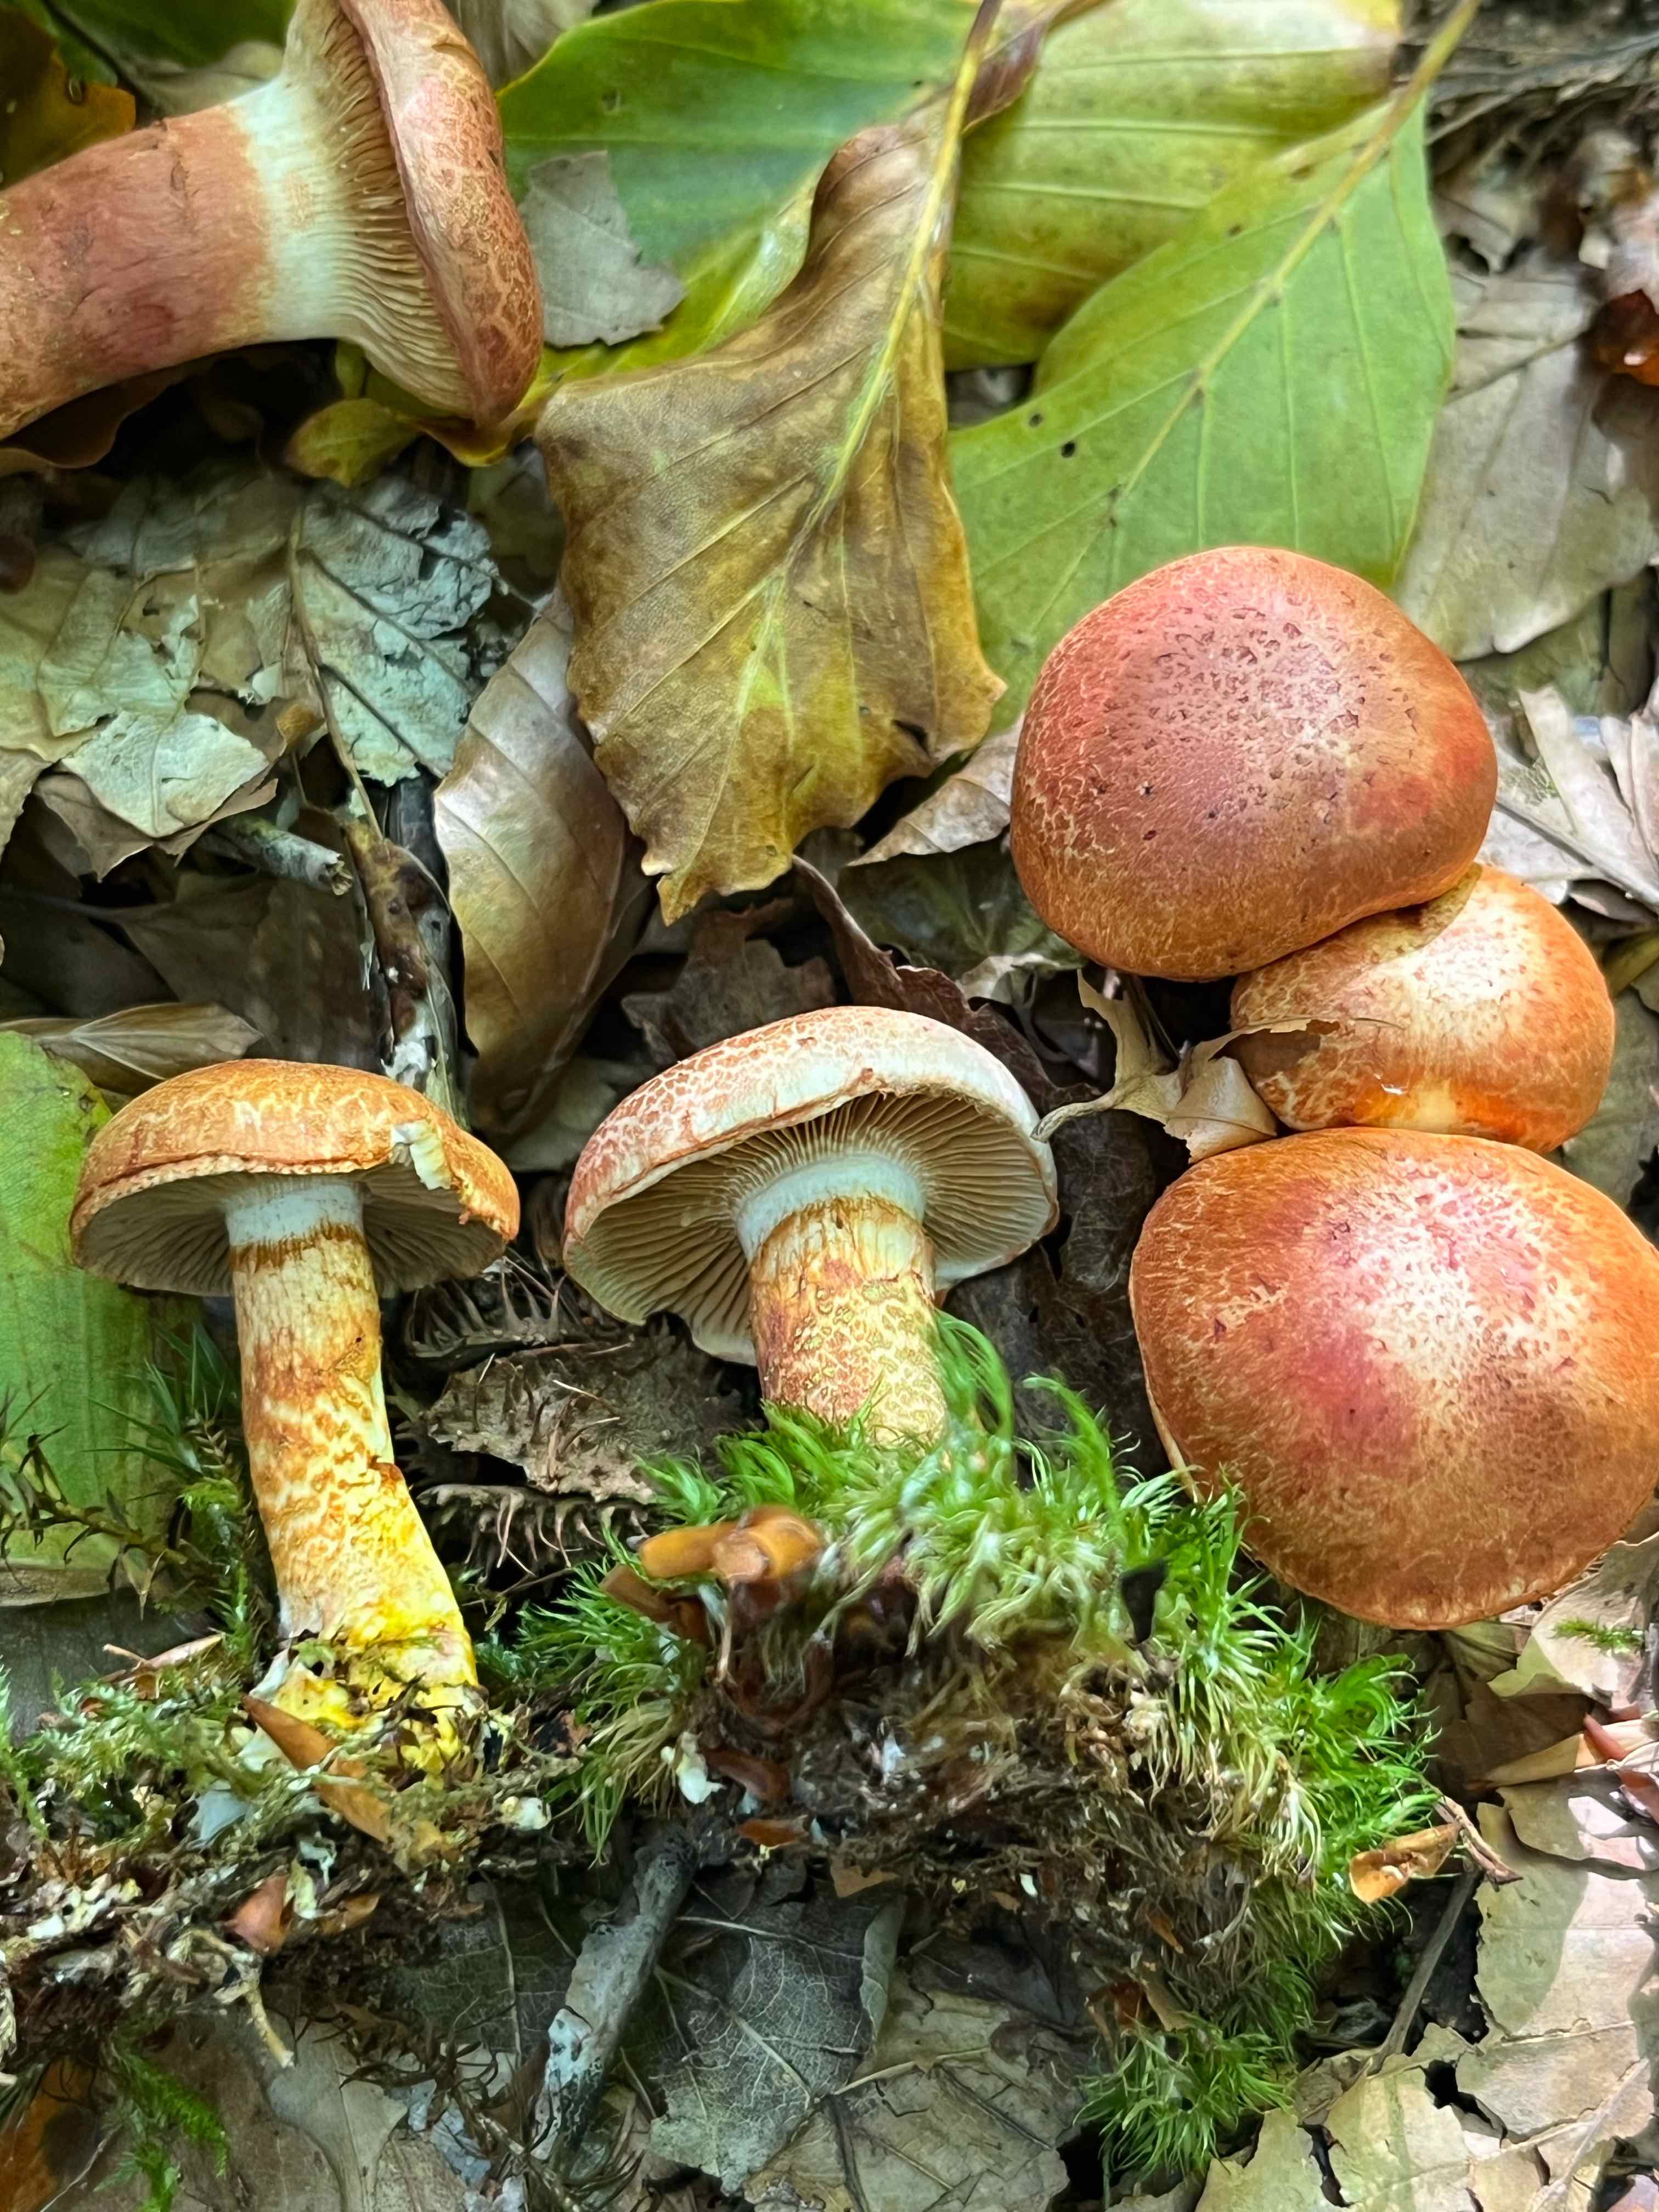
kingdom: Fungi
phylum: Basidiomycota
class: Agaricomycetes
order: Agaricales
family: Cortinariaceae
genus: Cortinarius
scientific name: Cortinarius bolaris
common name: cinnoberskællet slørhat
